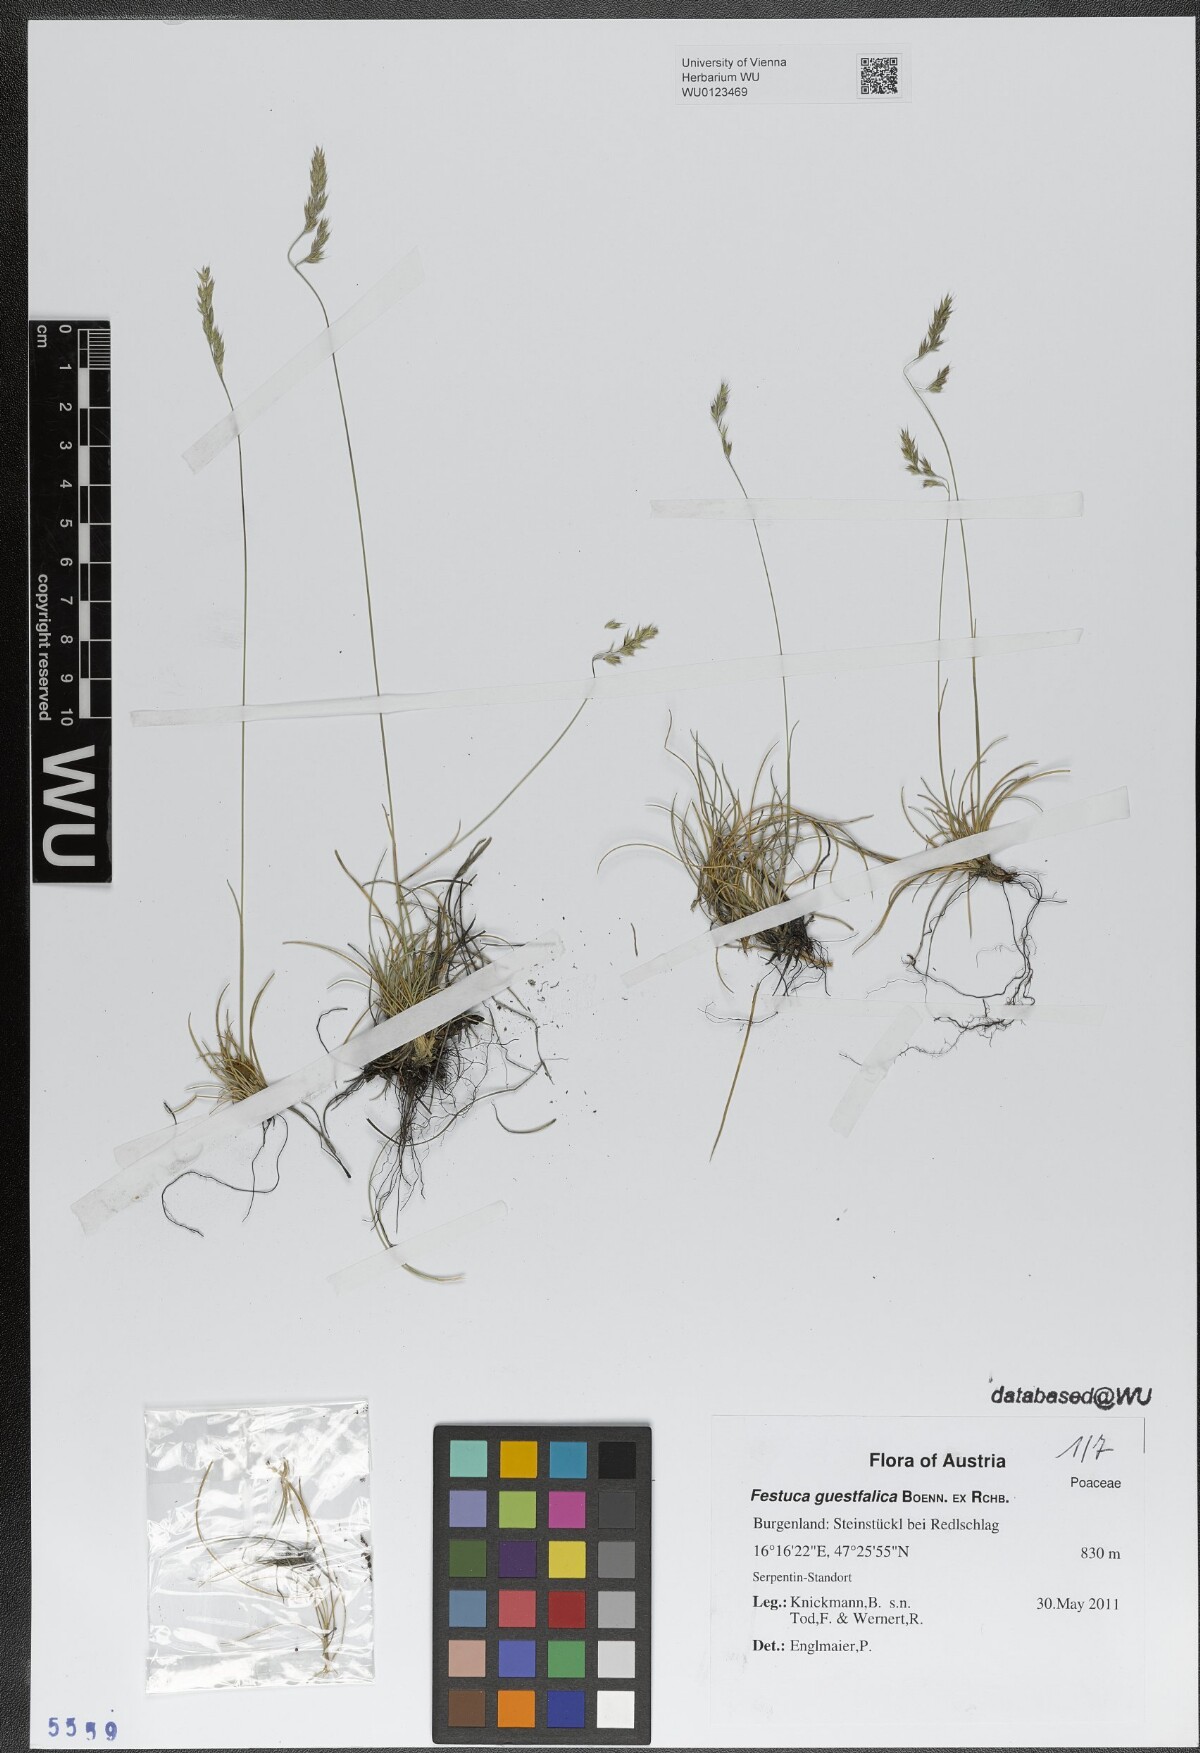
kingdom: Plantae
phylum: Tracheophyta
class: Liliopsida
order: Poales
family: Poaceae
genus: Festuca
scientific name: Festuca guestfalica
